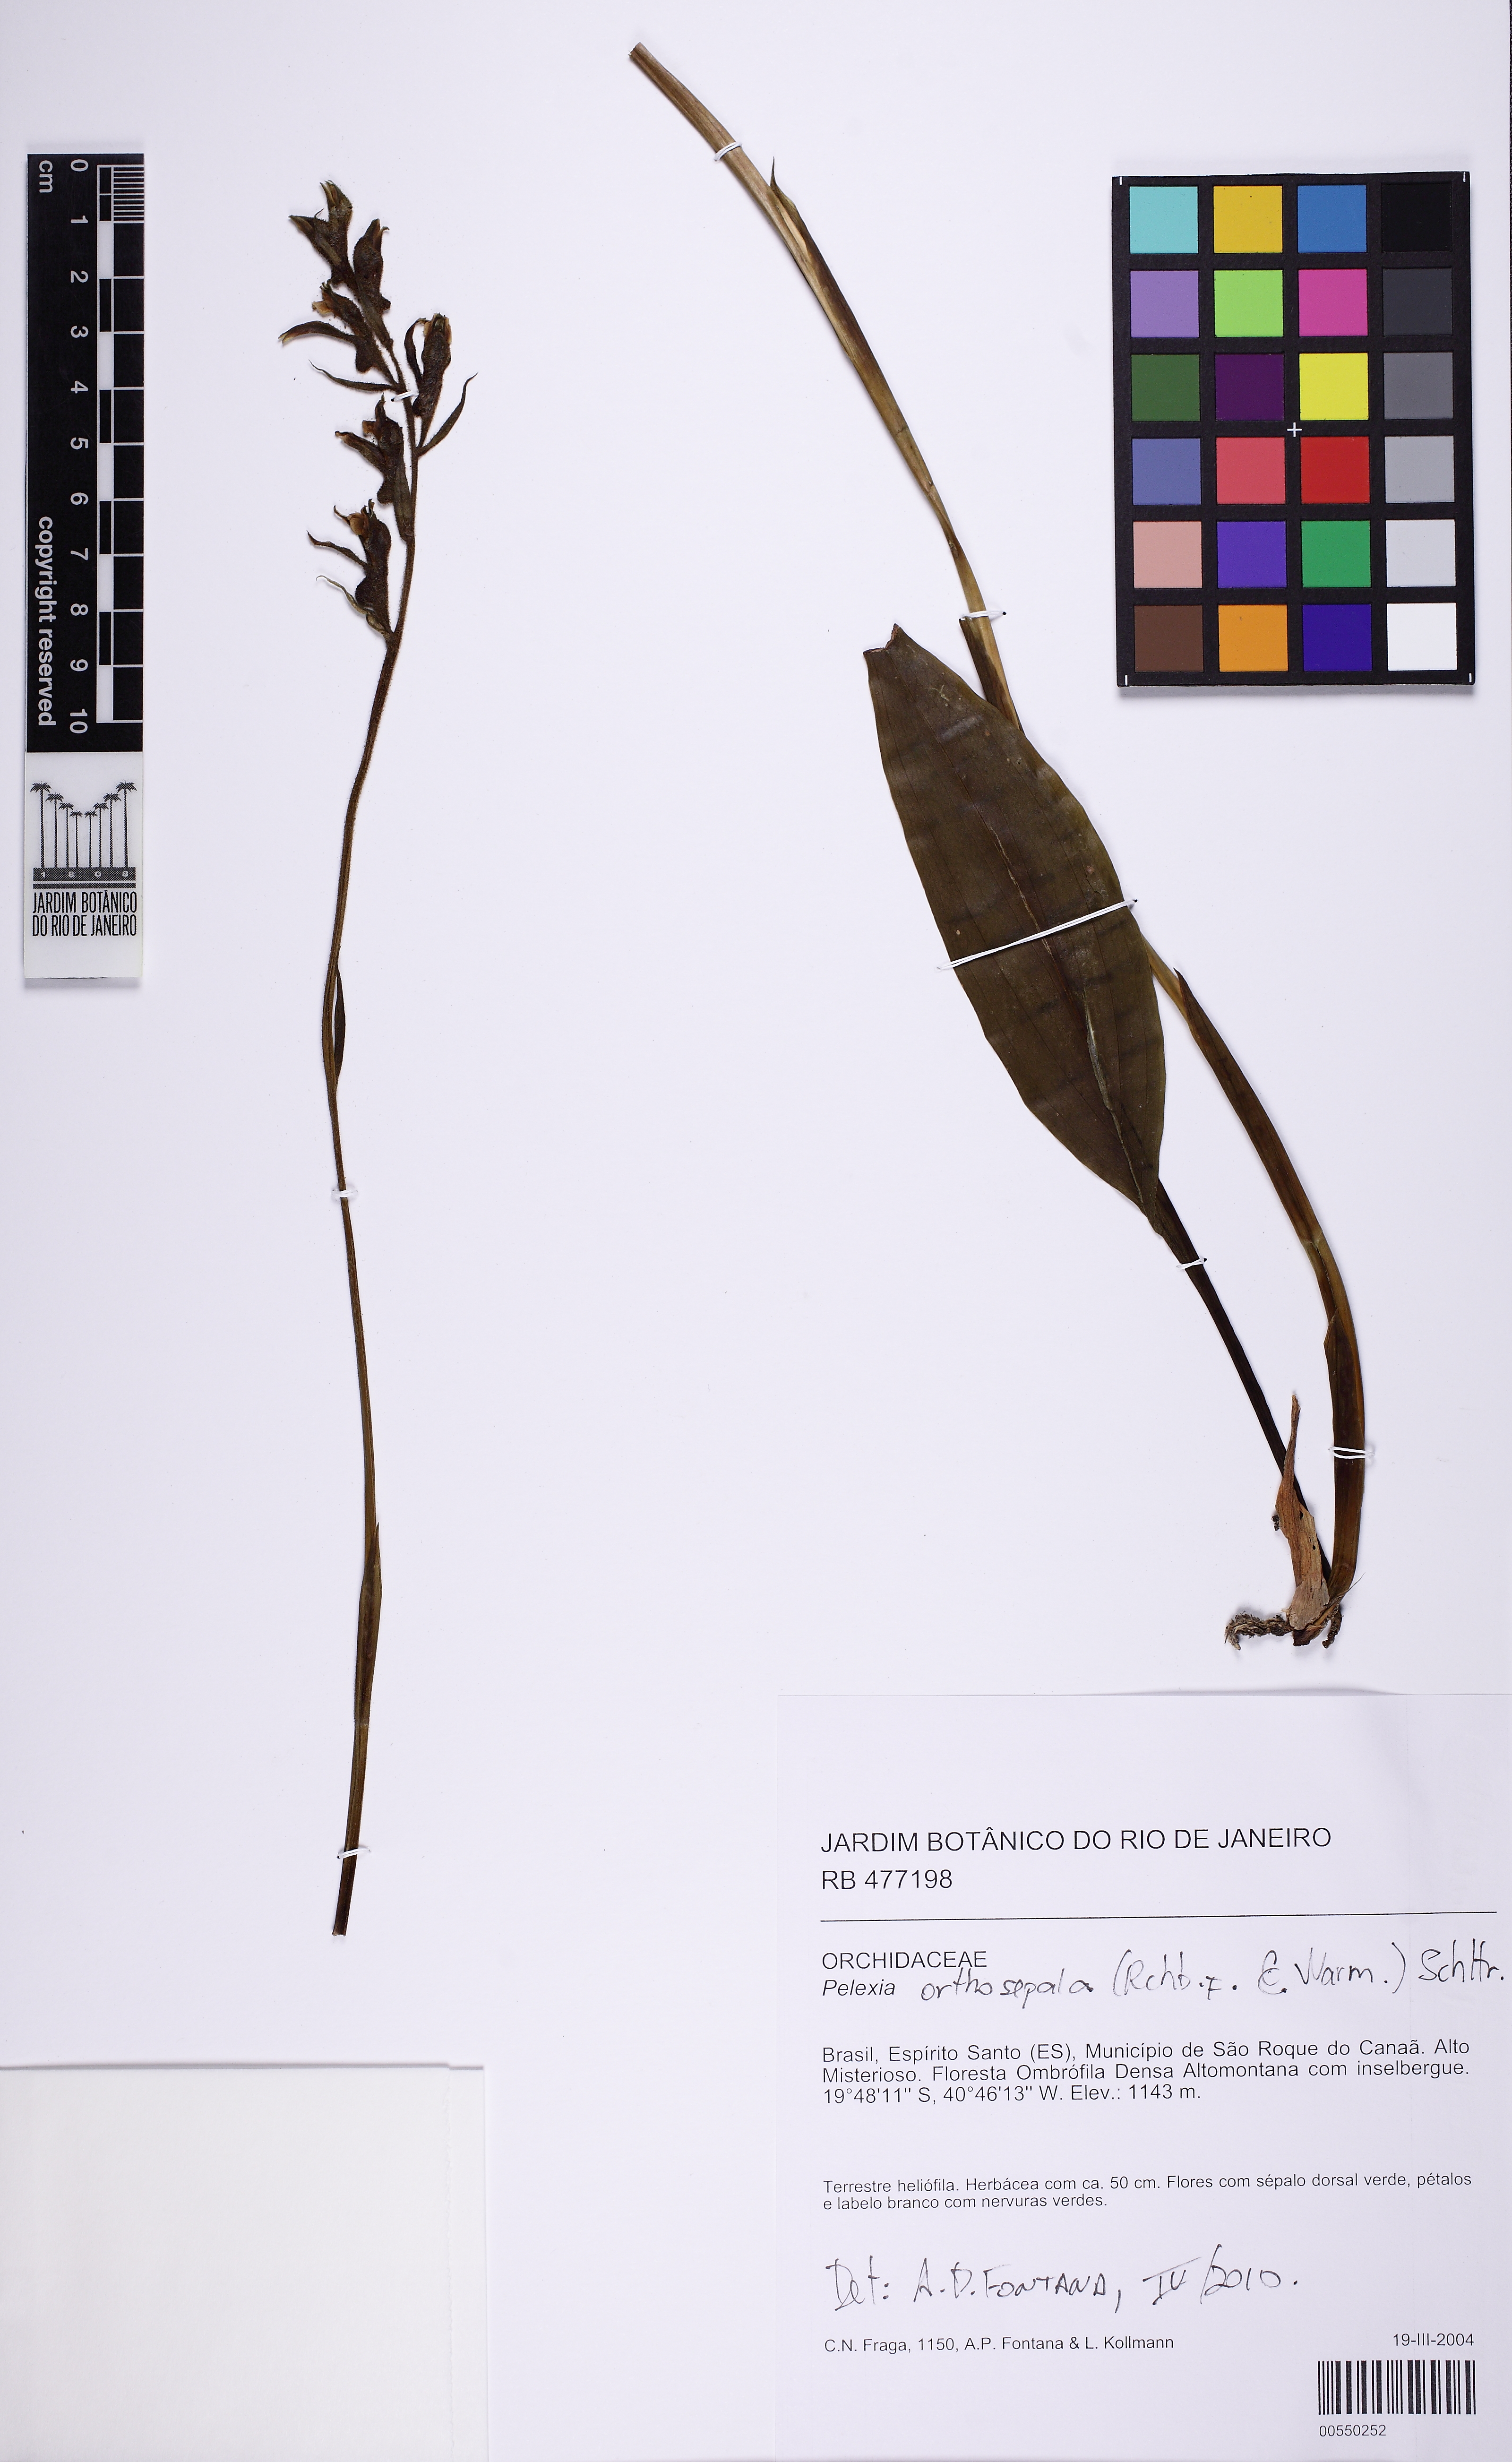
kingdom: Plantae
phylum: Tracheophyta
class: Liliopsida
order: Asparagales
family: Orchidaceae
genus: Pelexia
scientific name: Pelexia orthosepala
